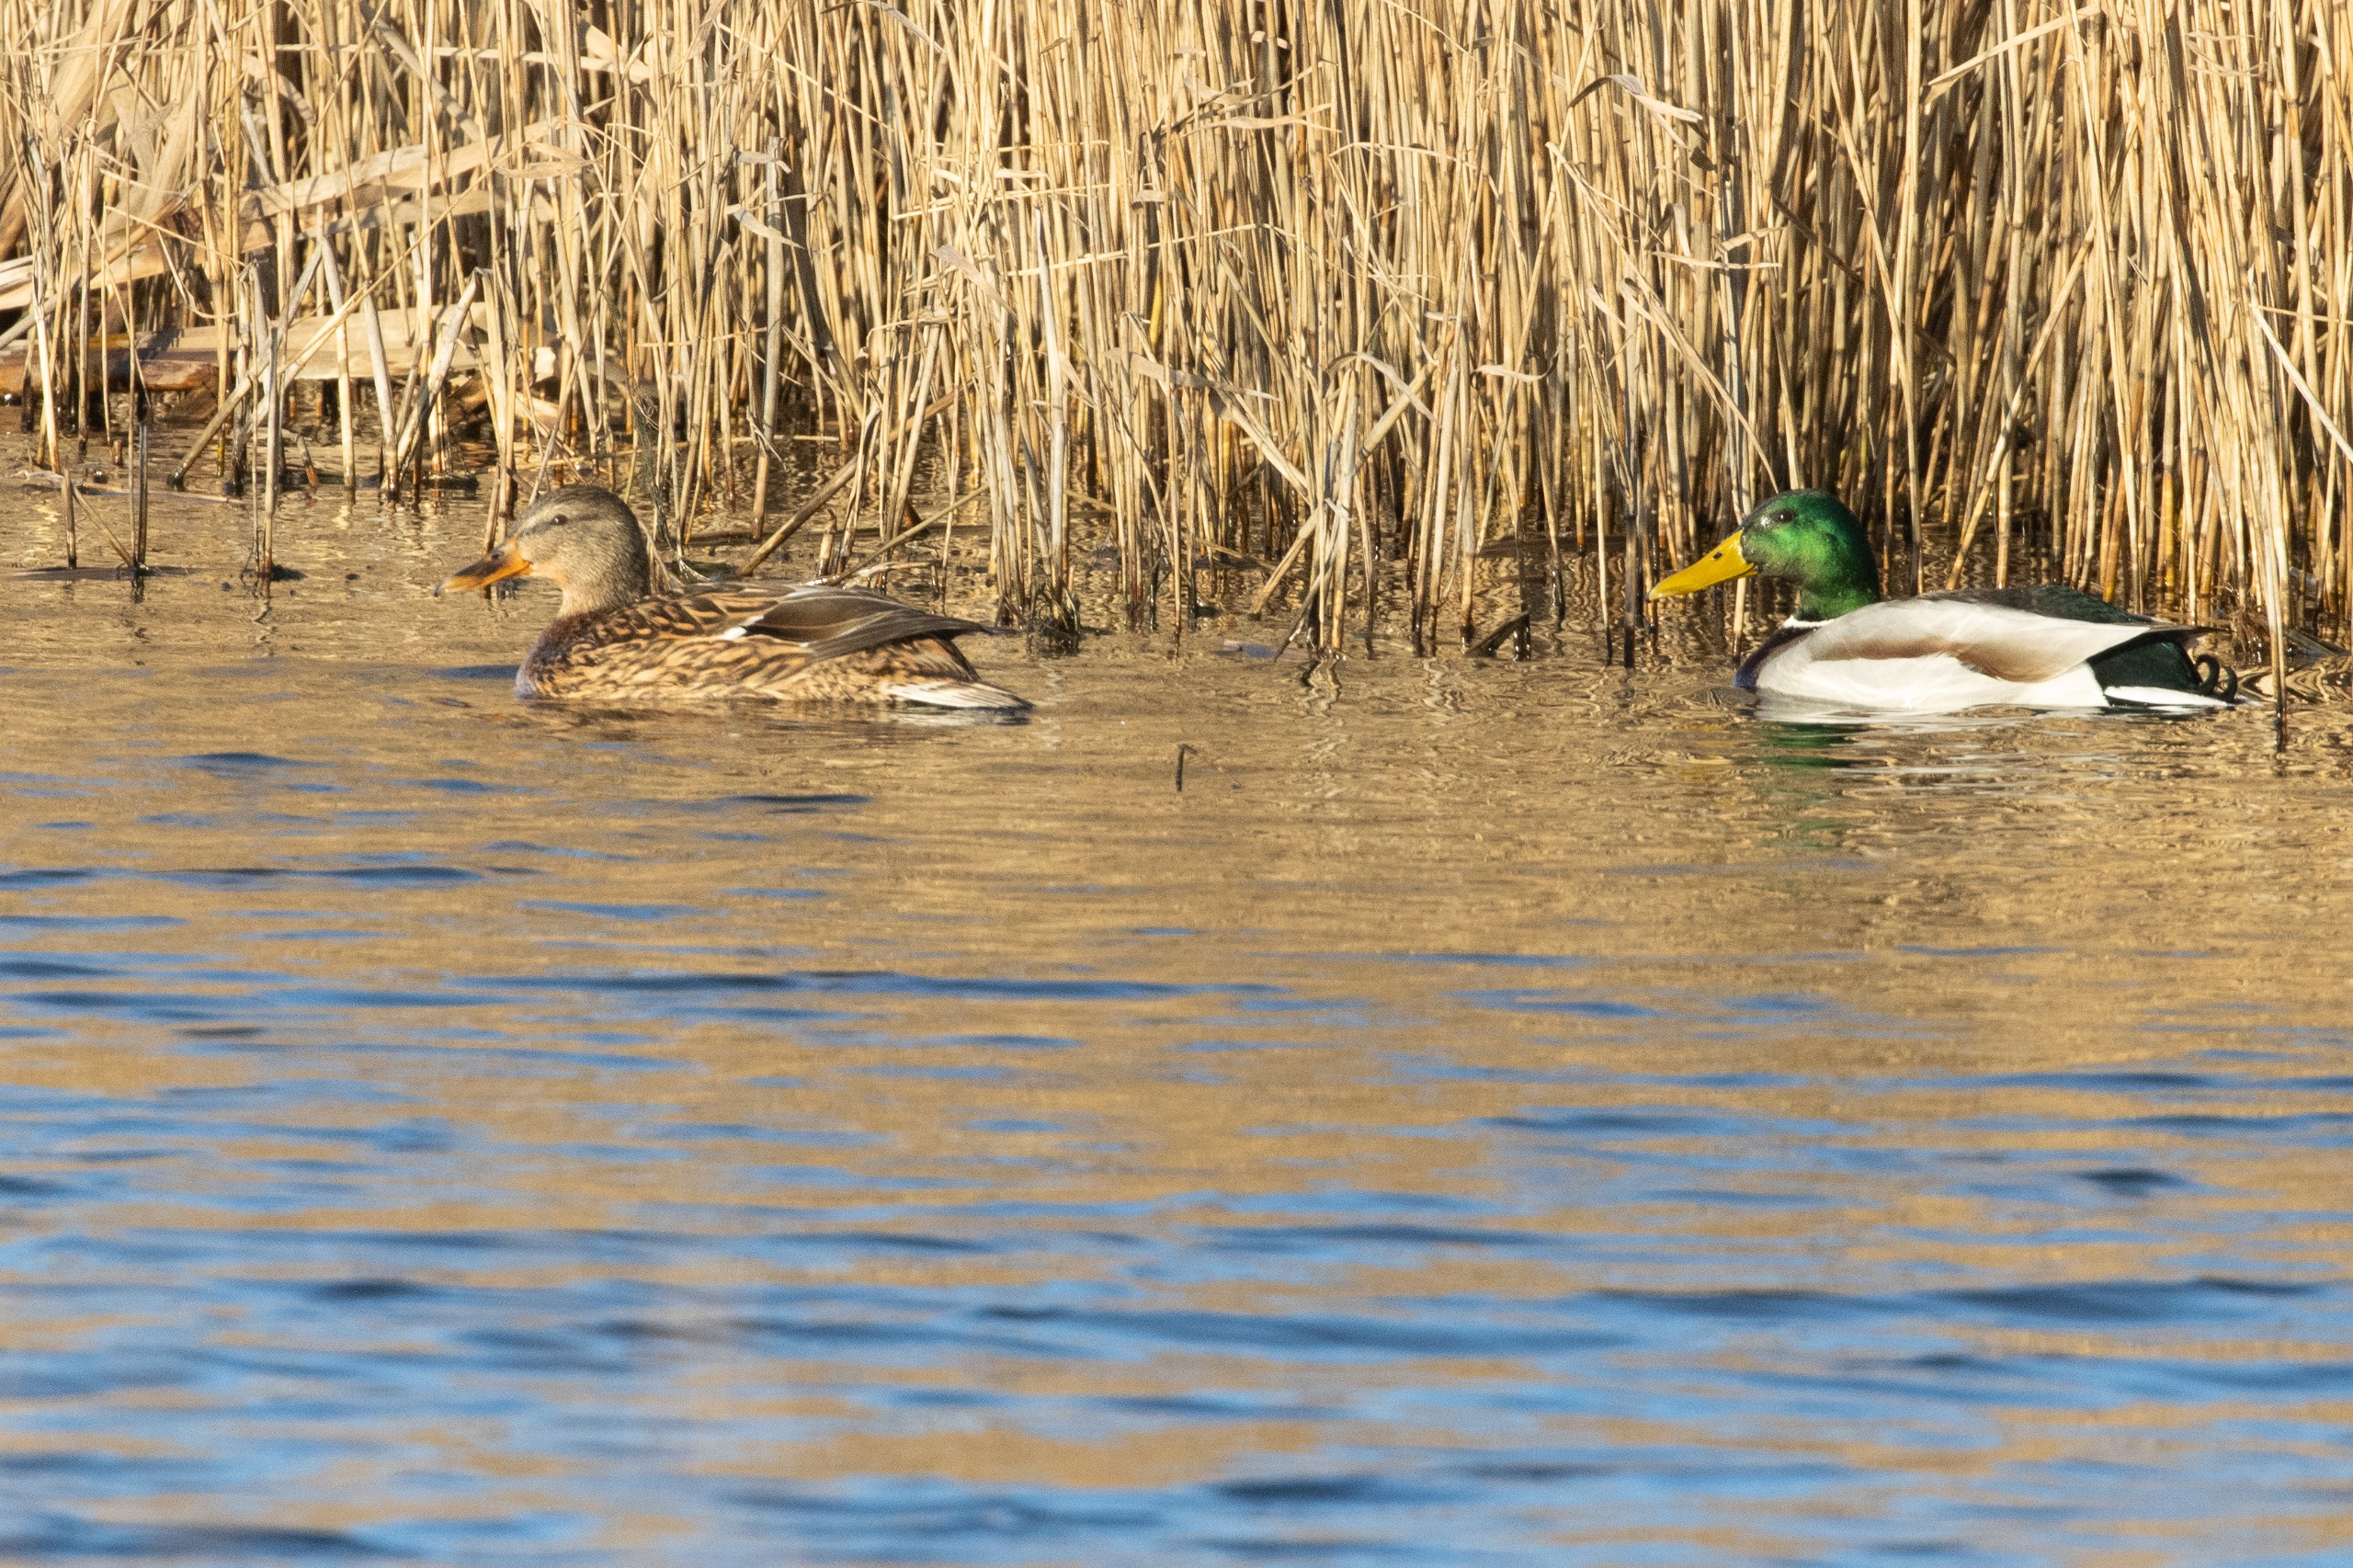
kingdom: Animalia
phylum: Chordata
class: Aves
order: Anseriformes
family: Anatidae
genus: Anas
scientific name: Anas platyrhynchos
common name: Gråand
